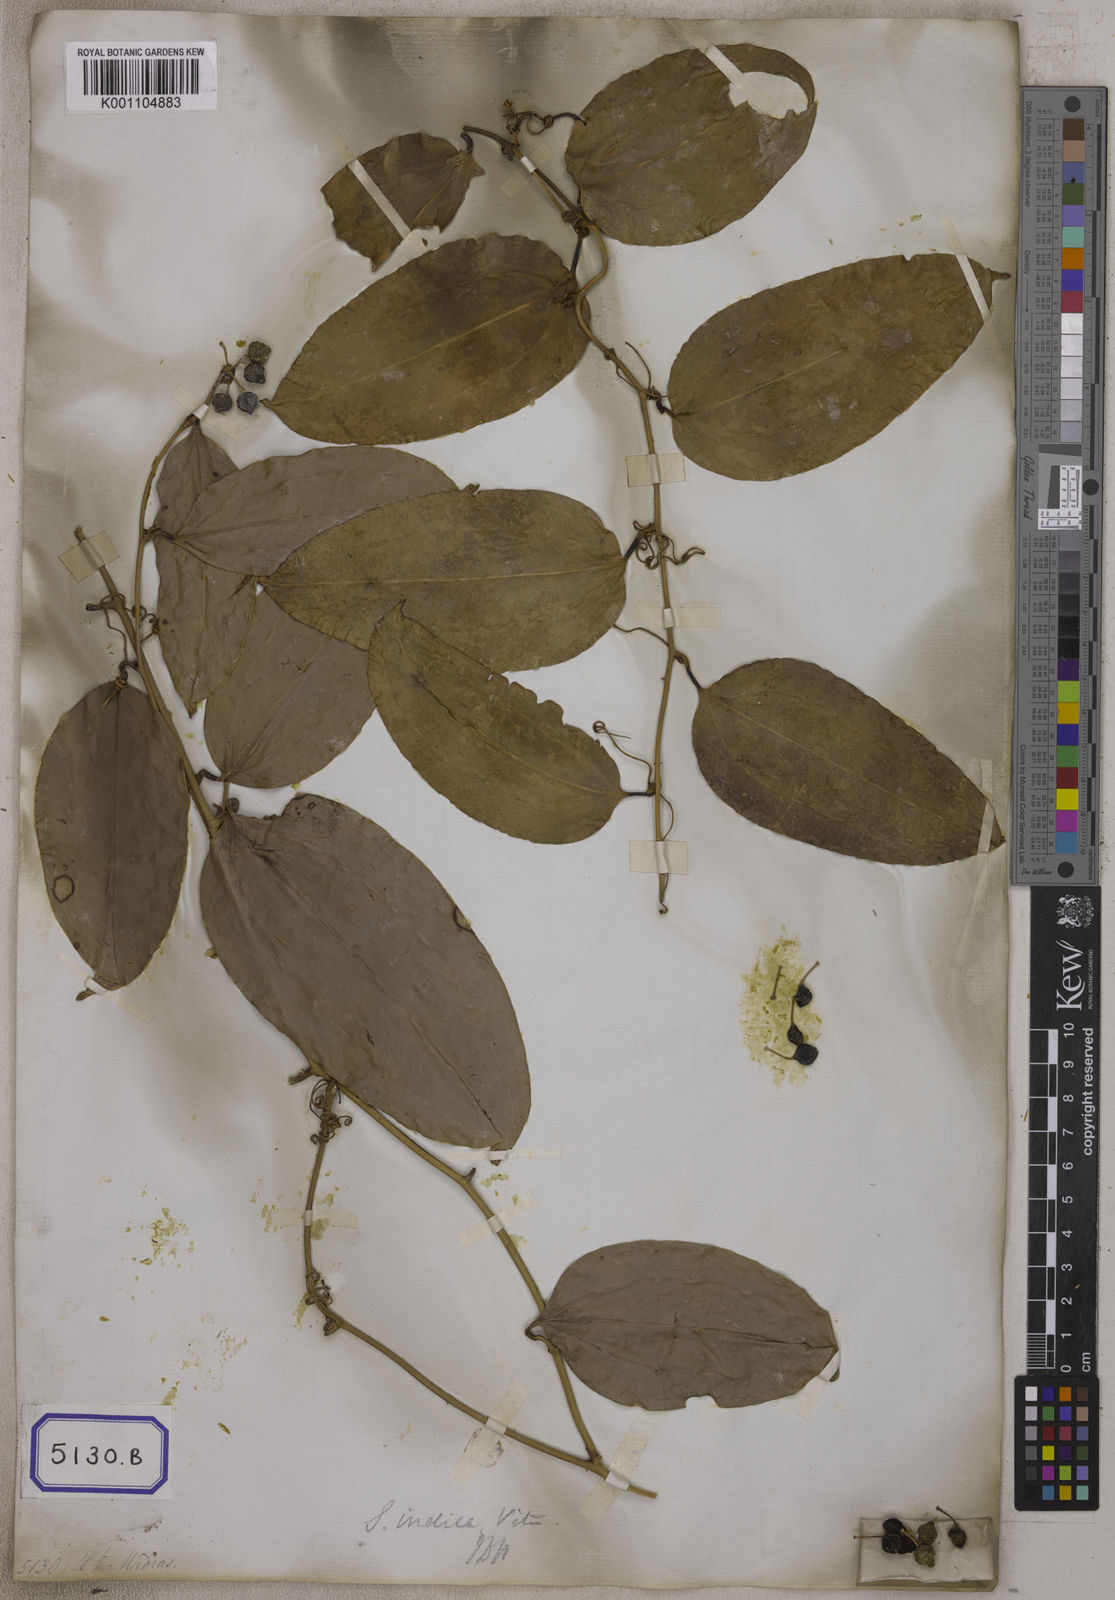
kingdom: Plantae
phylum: Tracheophyta
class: Liliopsida
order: Liliales
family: Smilacaceae
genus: Smilax
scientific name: Smilax zeylanica
